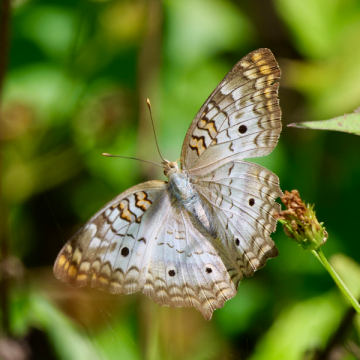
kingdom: Animalia
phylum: Arthropoda
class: Insecta
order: Lepidoptera
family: Nymphalidae
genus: Anartia
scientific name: Anartia jatrophae
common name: White Peacock
